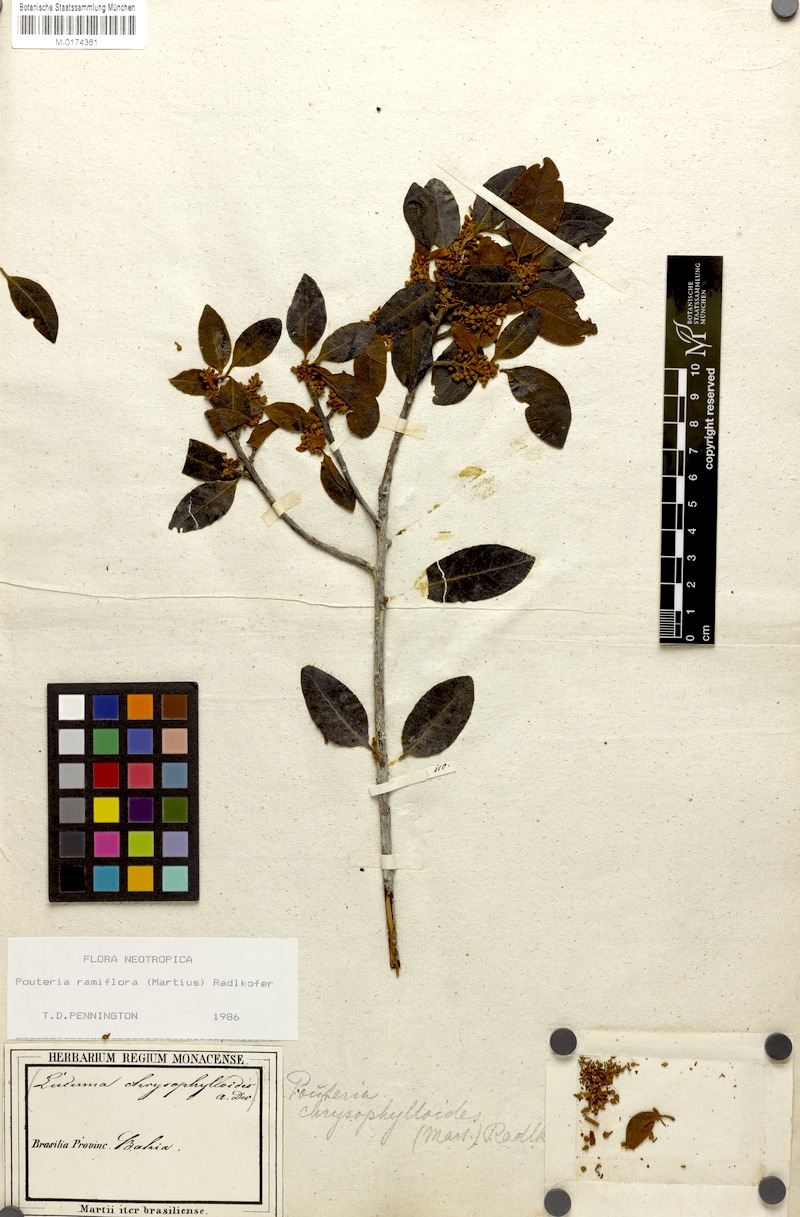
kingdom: Plantae
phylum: Tracheophyta
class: Magnoliopsida
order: Ericales
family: Sapotaceae
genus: Pouteria
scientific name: Pouteria ramiflora
